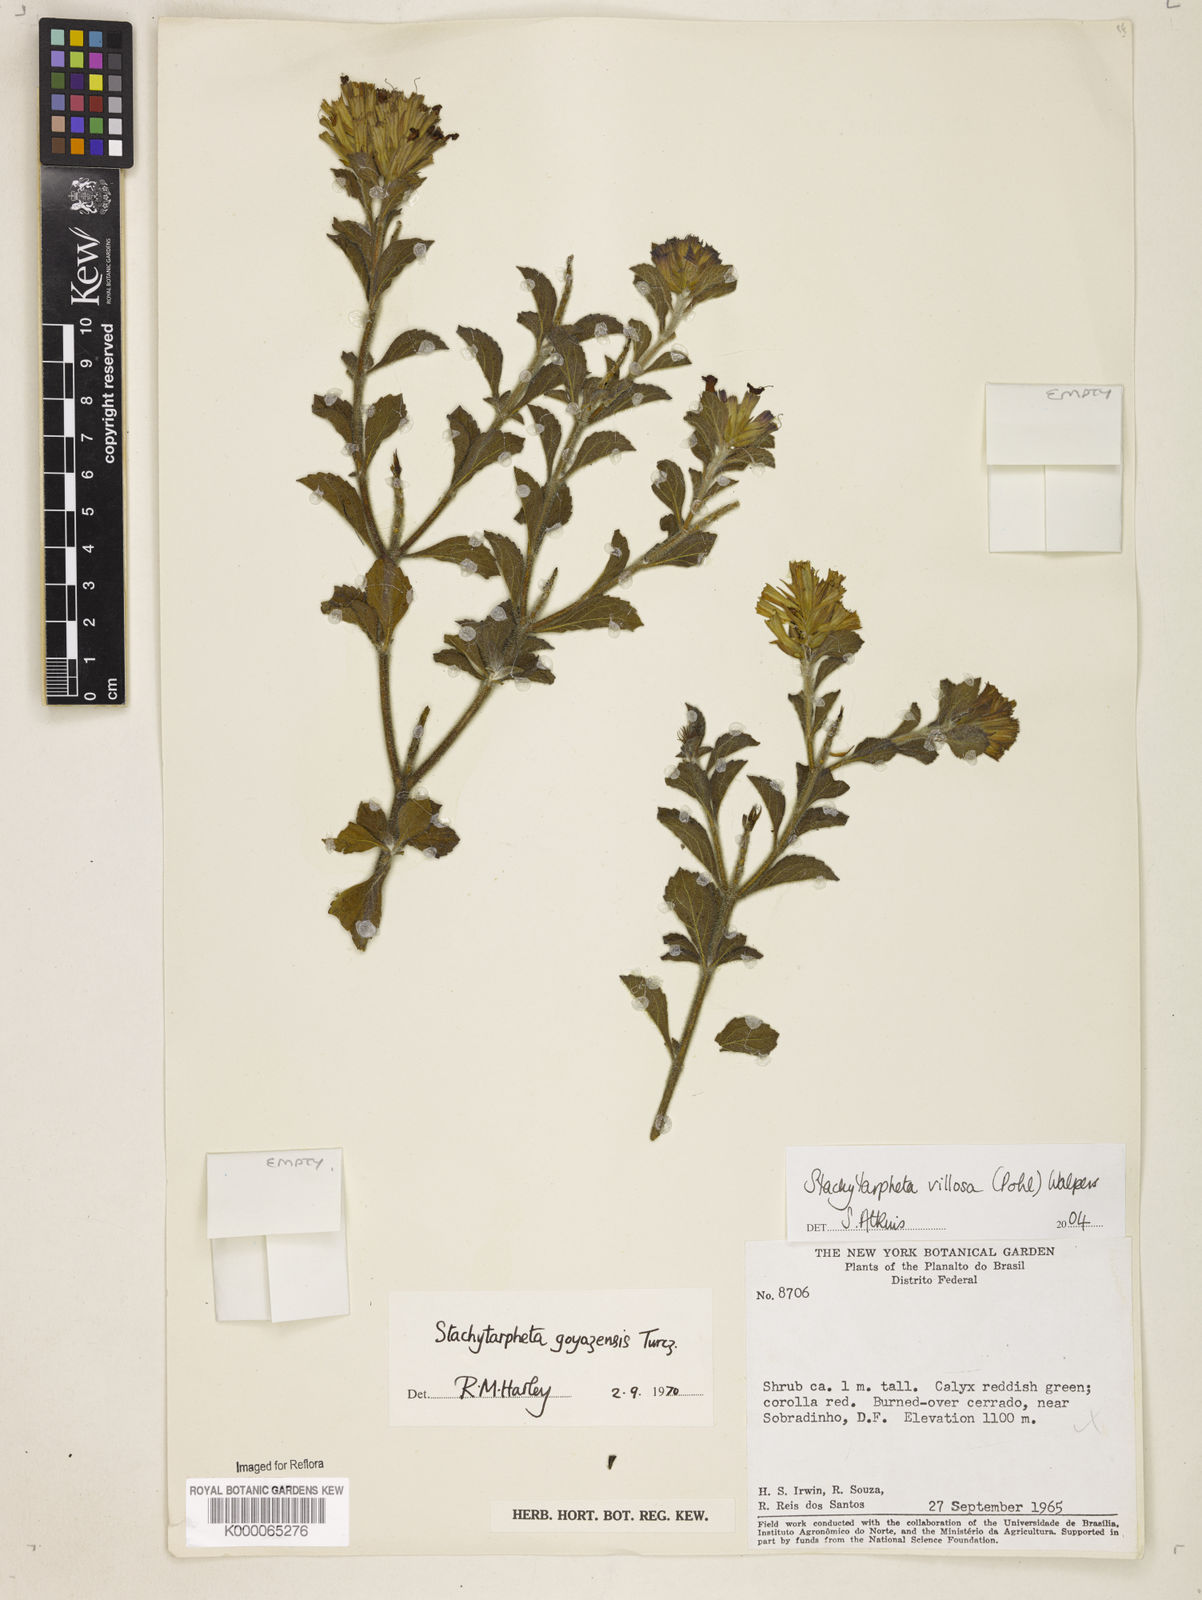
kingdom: Plantae
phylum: Tracheophyta
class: Magnoliopsida
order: Lamiales
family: Verbenaceae
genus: Stachytarpheta
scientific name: Stachytarpheta villosa
